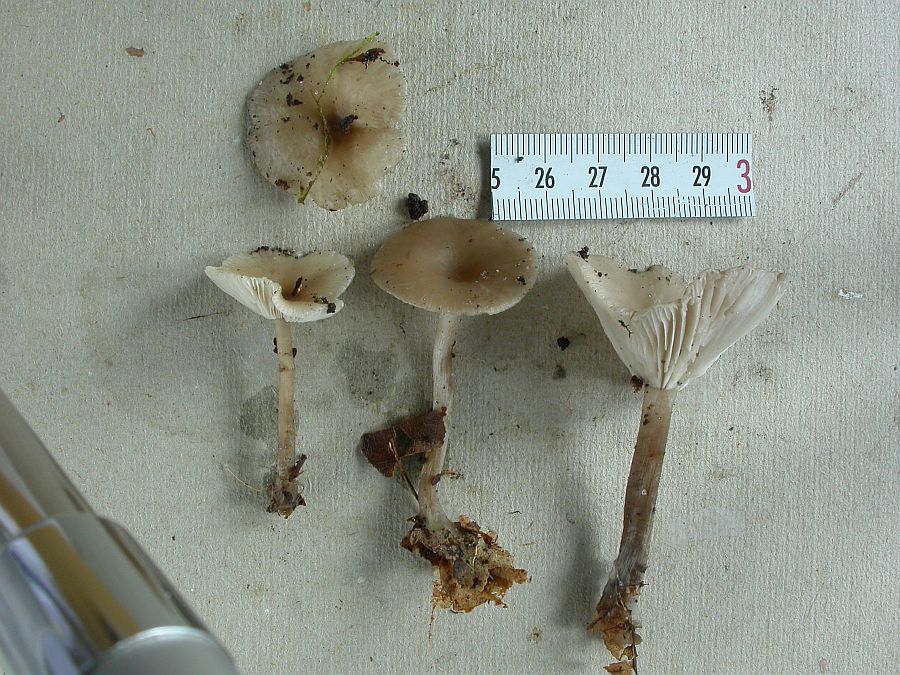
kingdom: Fungi
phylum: Basidiomycota
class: Agaricomycetes
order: Agaricales
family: Tricholomataceae
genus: Clitocybe
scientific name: Clitocybe metachroa
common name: grå tragthat
